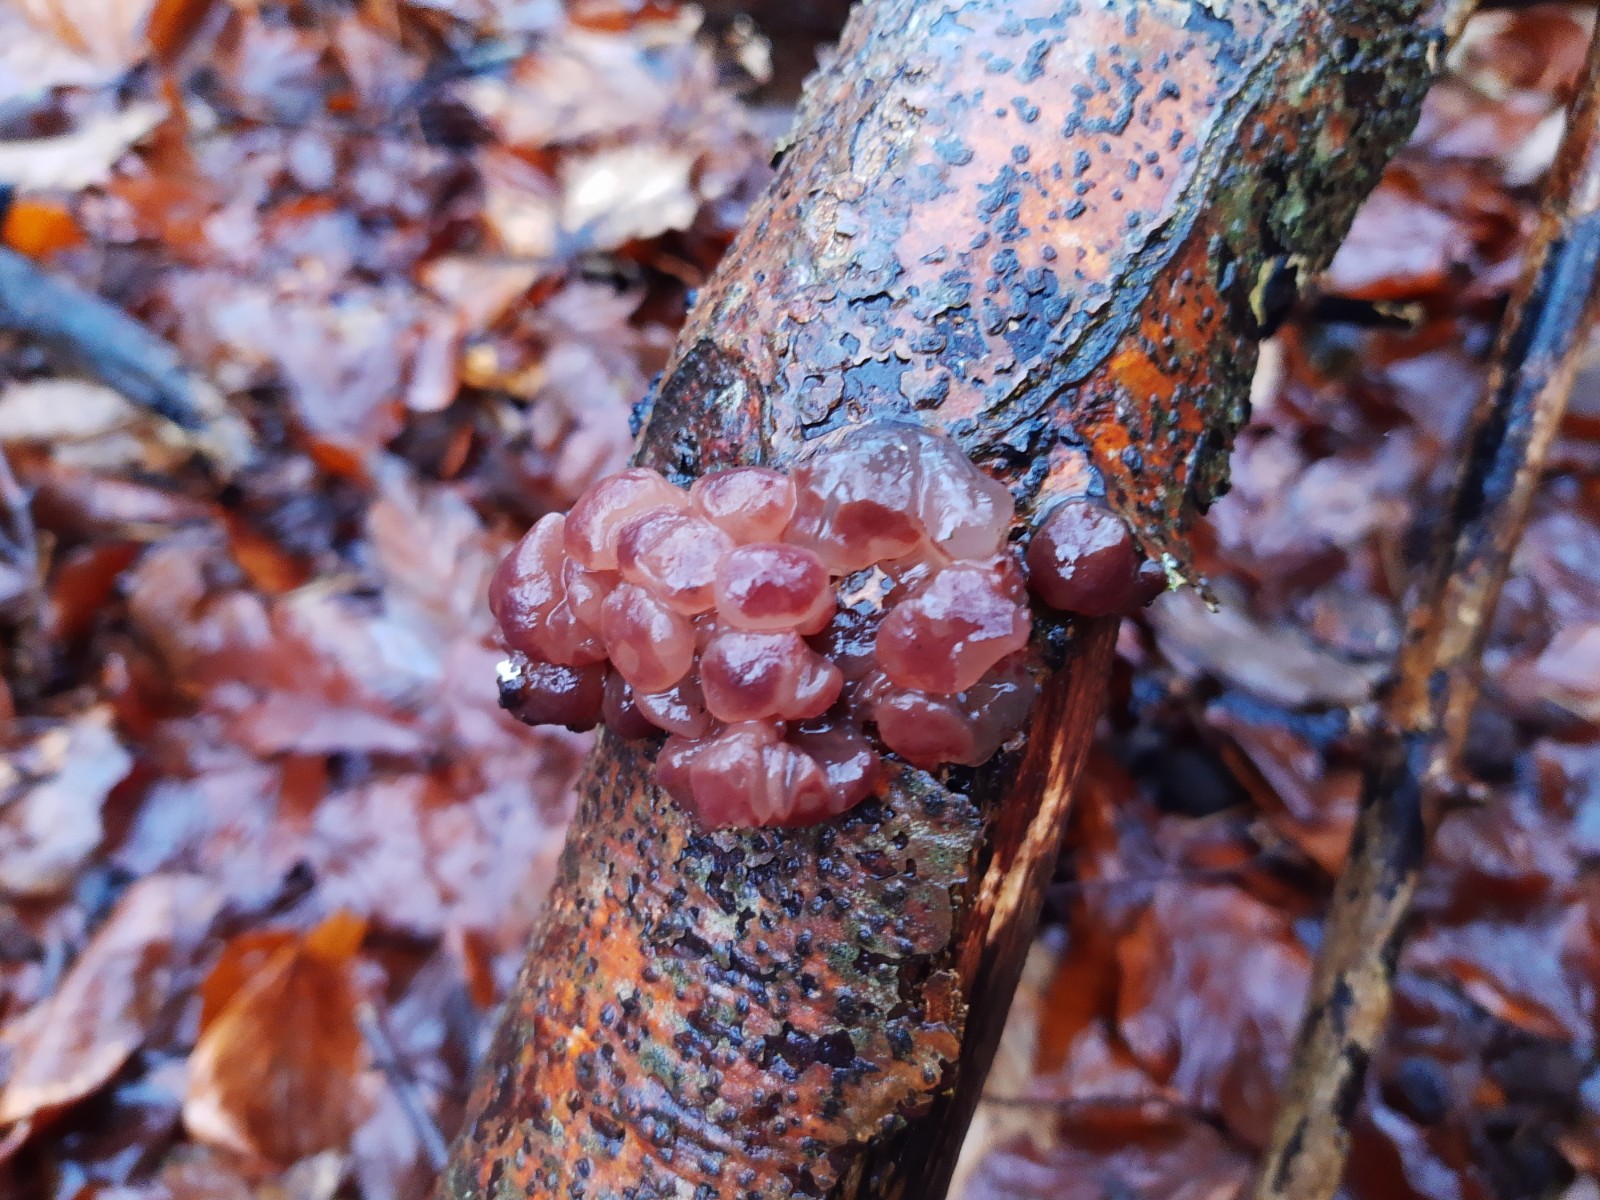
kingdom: Fungi
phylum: Ascomycota
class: Leotiomycetes
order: Helotiales
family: Gelatinodiscaceae
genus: Ascotremella
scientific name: Ascotremella faginea
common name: hjerne-bævreskive
